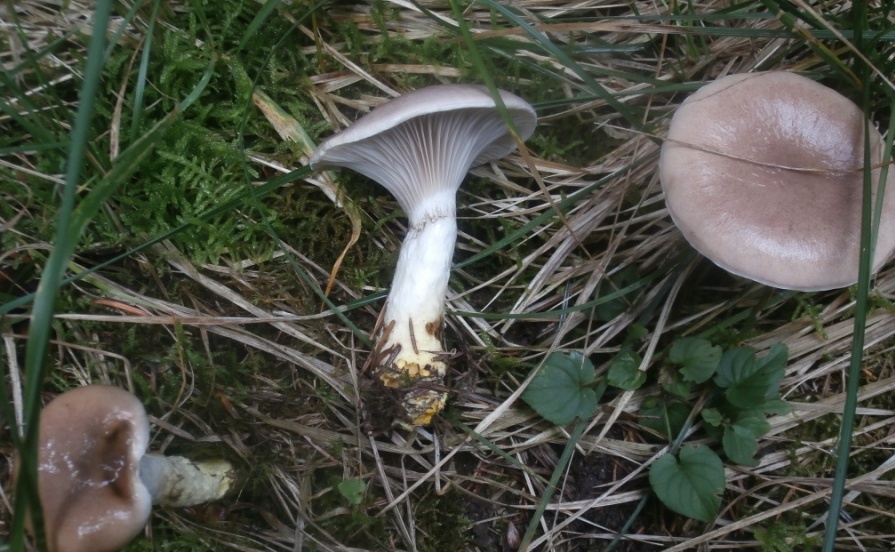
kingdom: Fungi
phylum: Basidiomycota
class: Agaricomycetes
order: Boletales
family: Gomphidiaceae
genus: Gomphidius
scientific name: Gomphidius glutinosus
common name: grå slimslør
